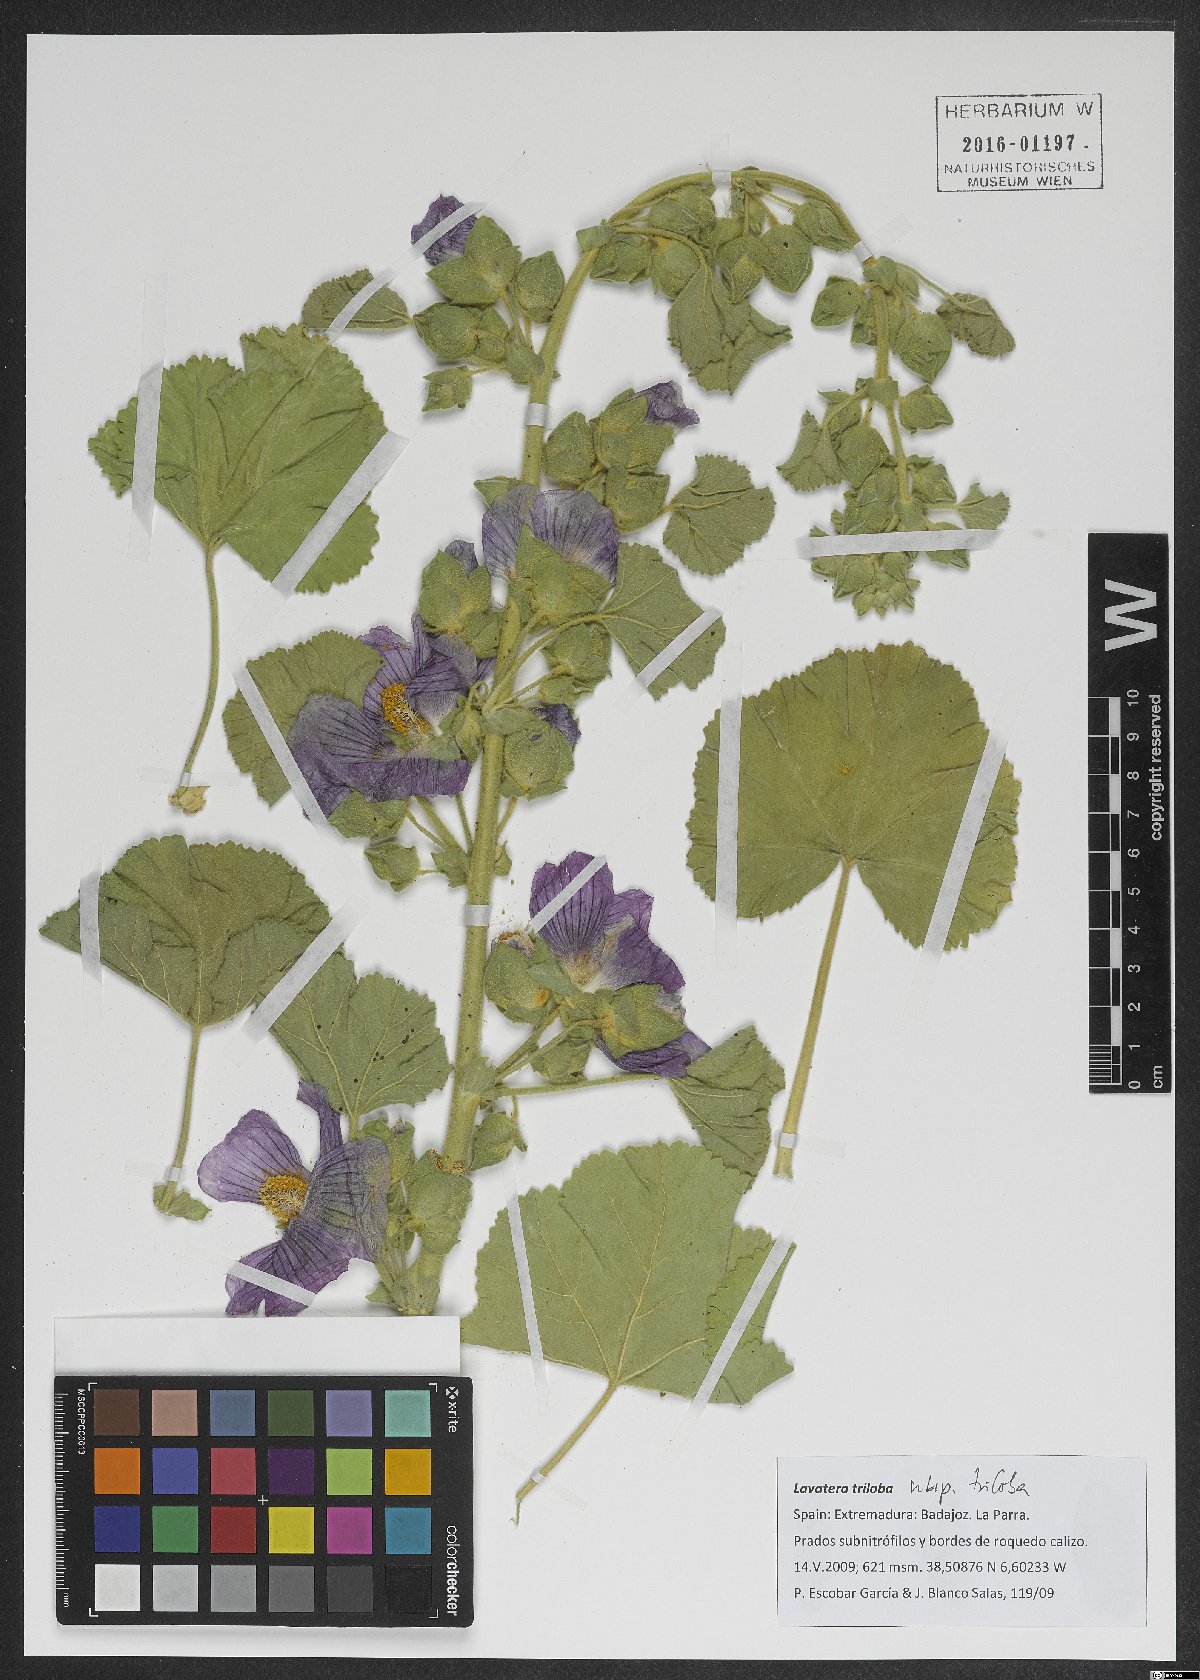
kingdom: Plantae
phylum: Tracheophyta
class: Magnoliopsida
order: Malvales
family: Malvaceae
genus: Malva
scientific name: Malva
